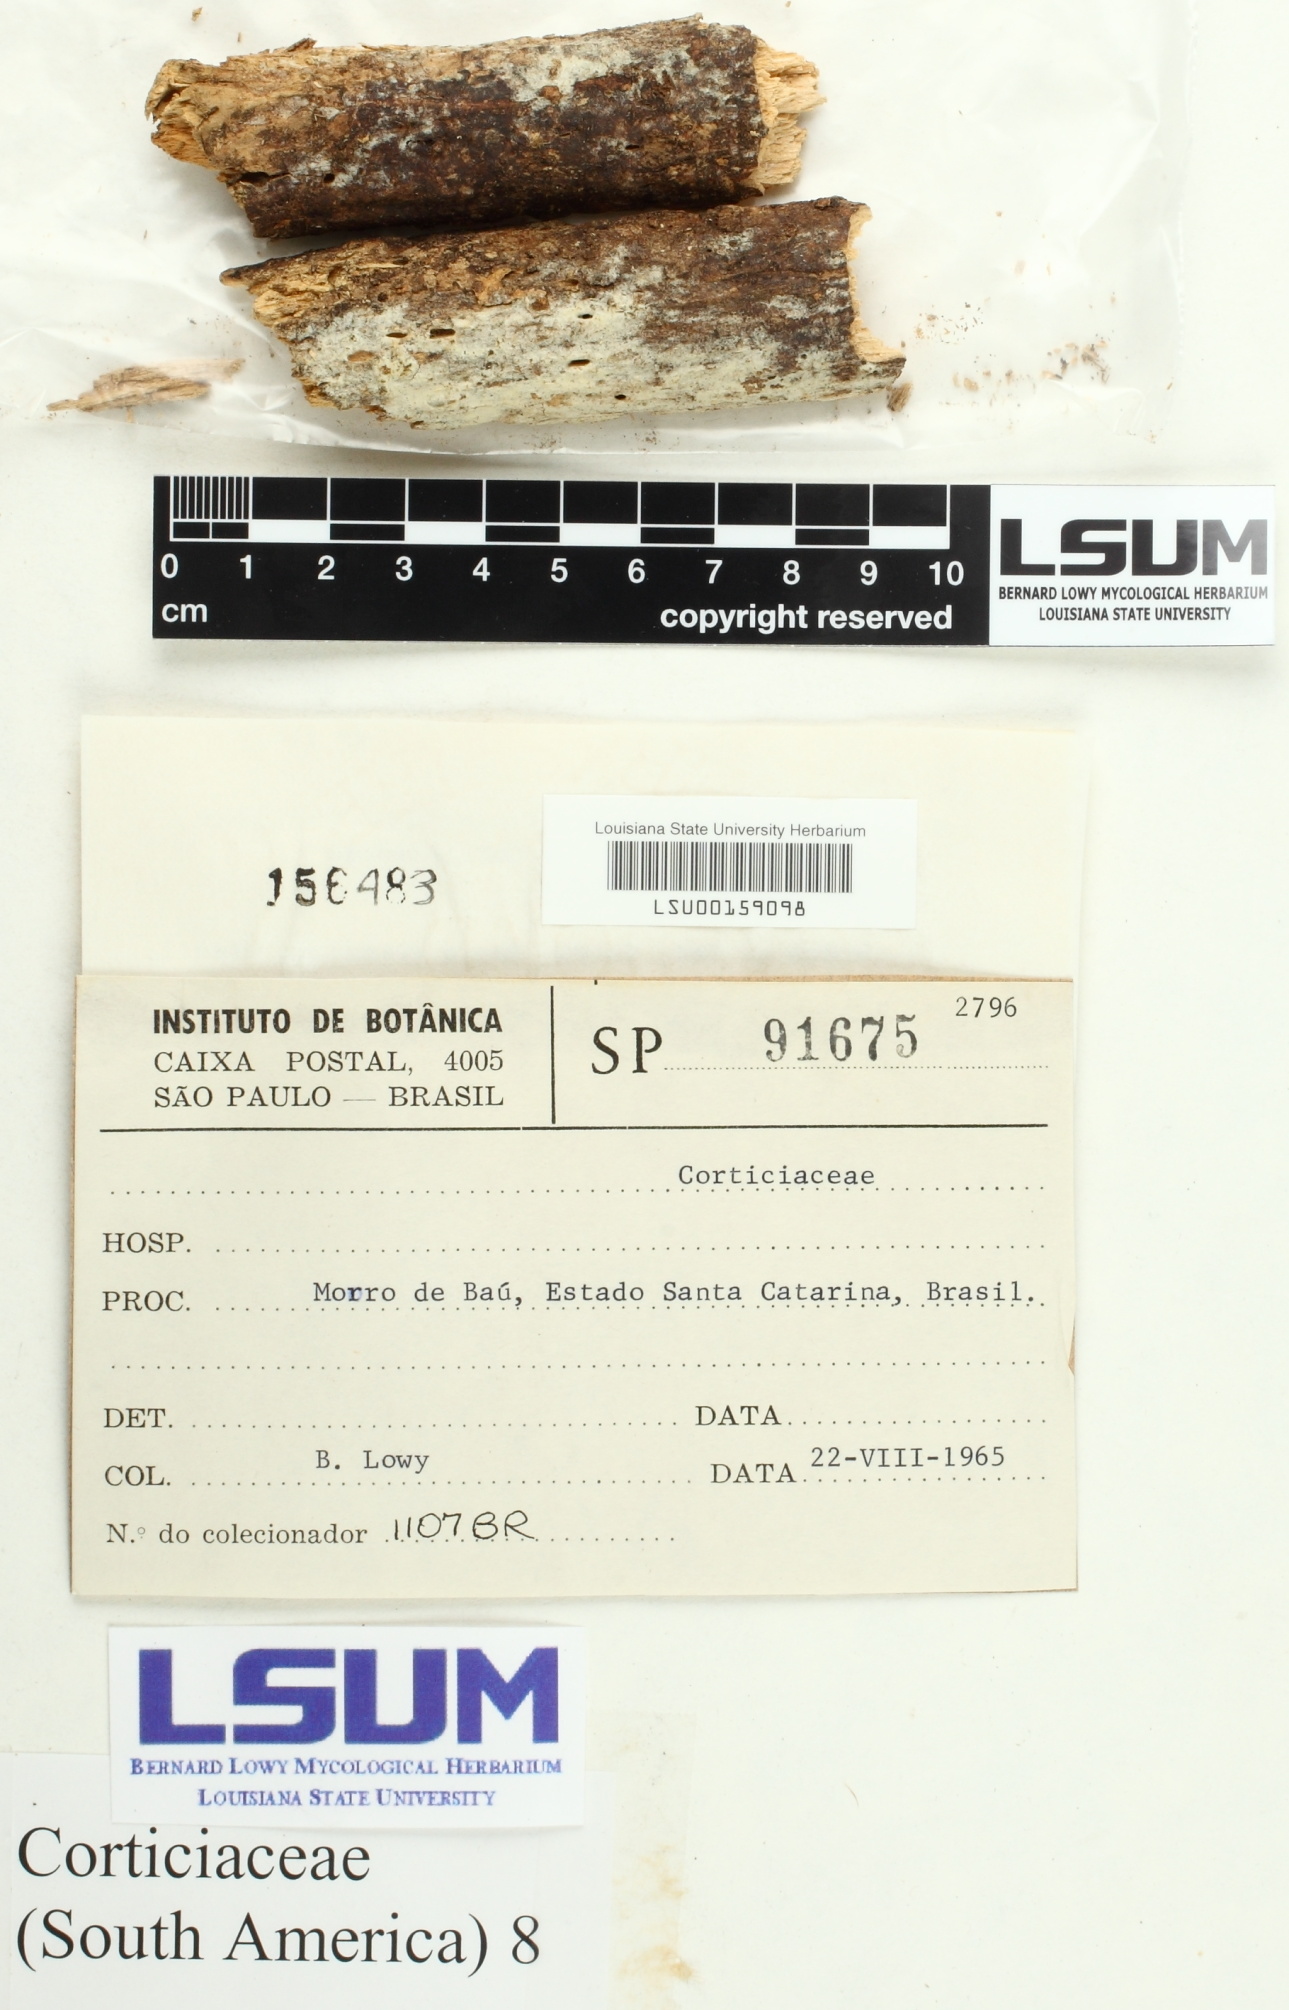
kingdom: Fungi
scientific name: Fungi
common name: Fungi
